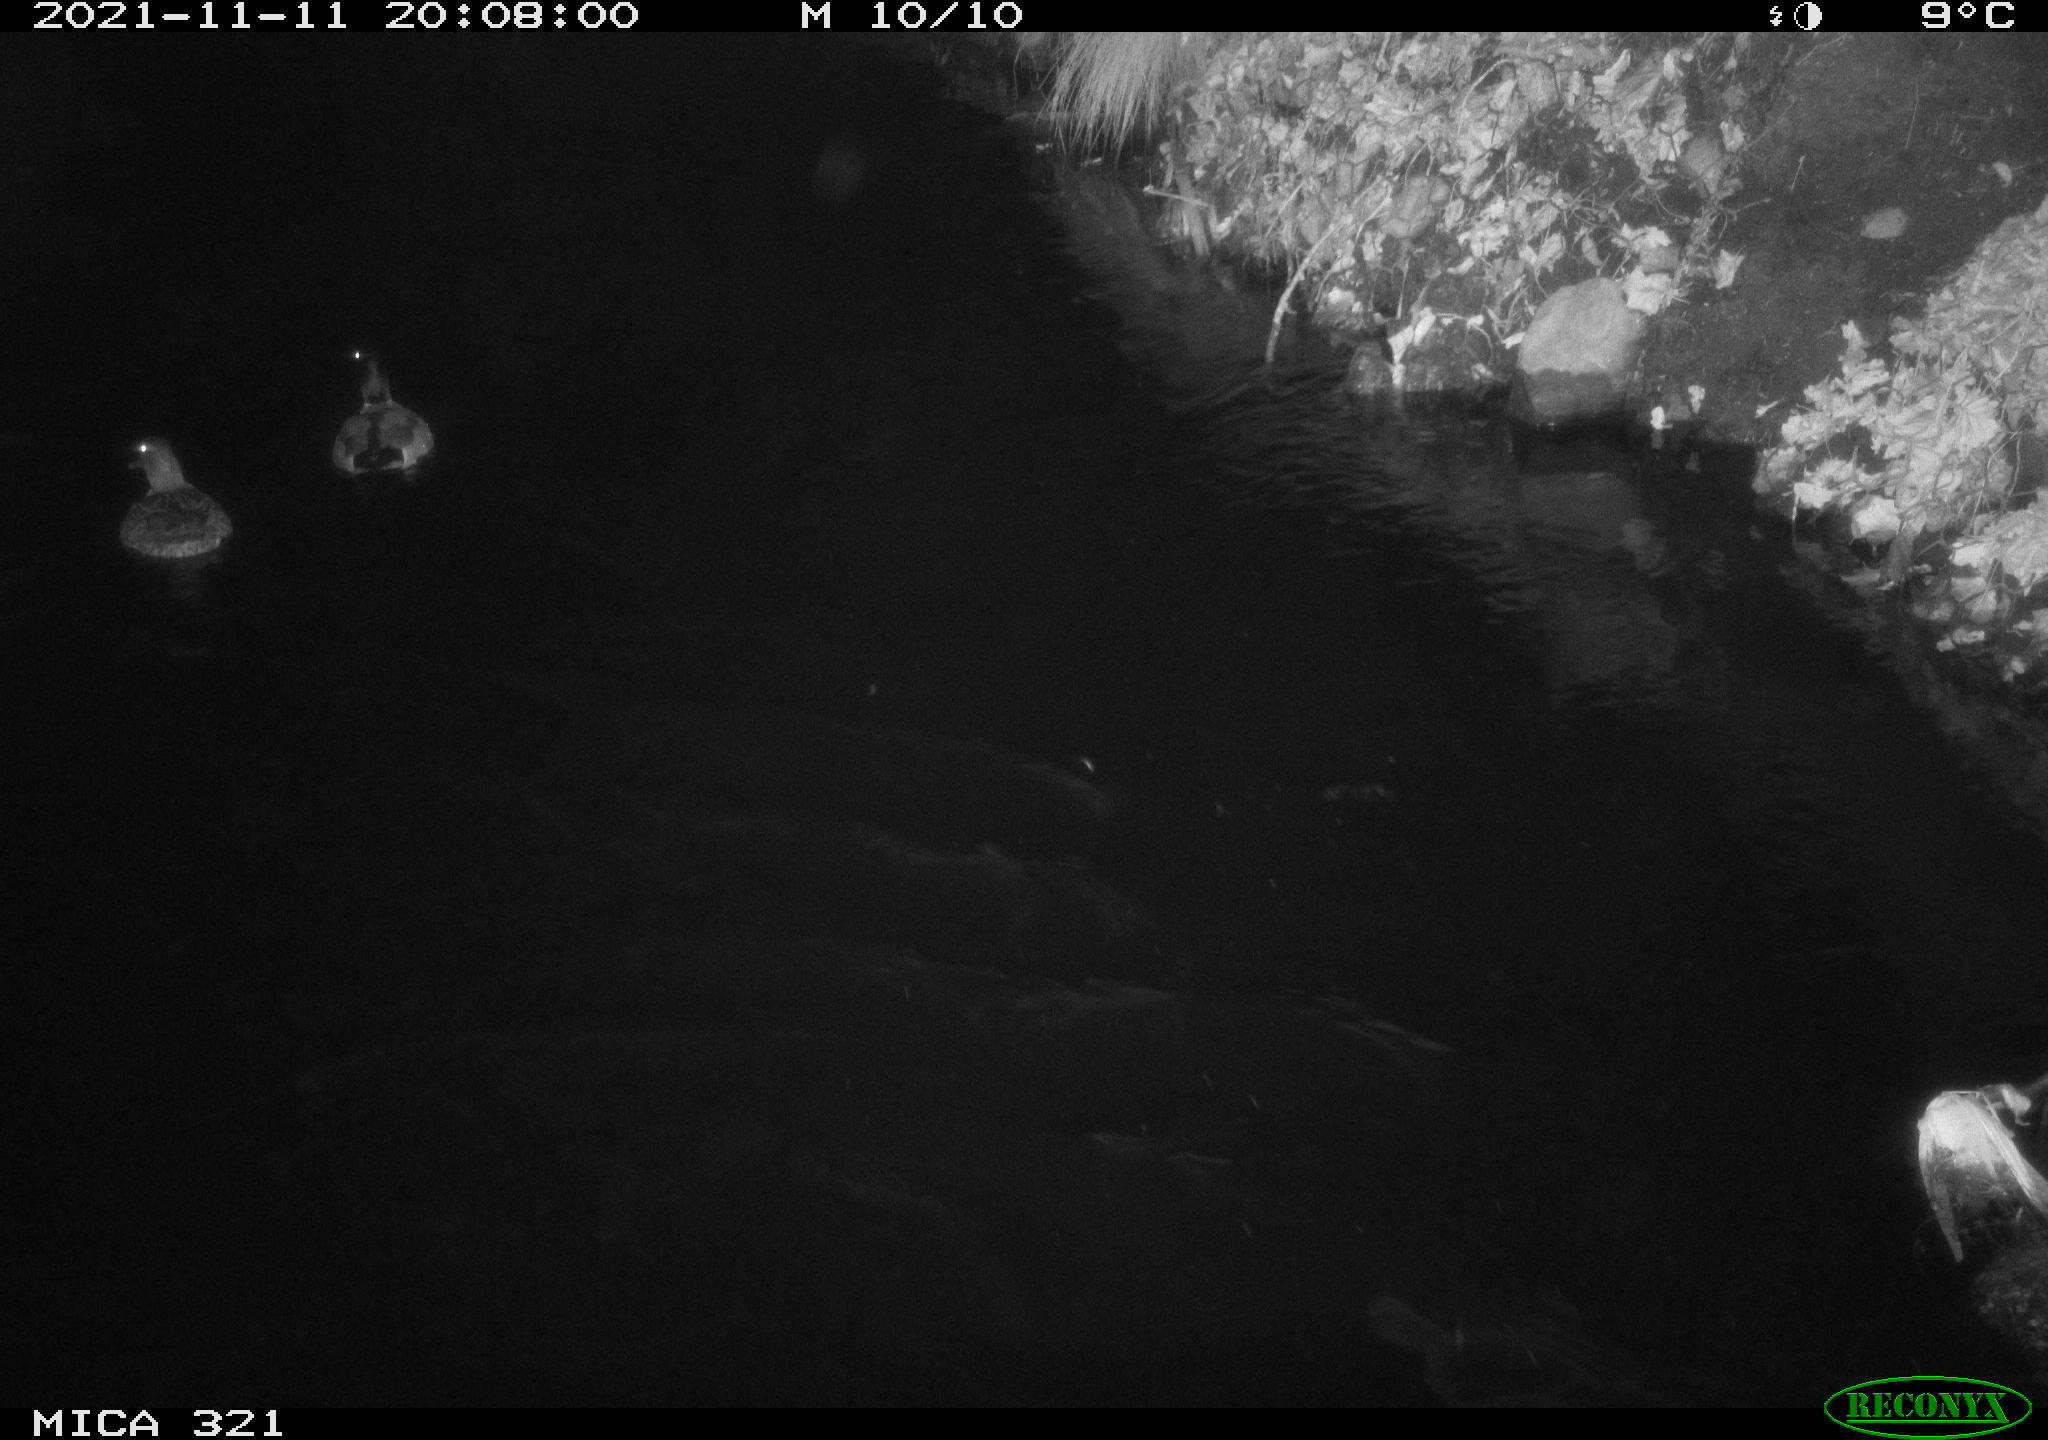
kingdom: Animalia
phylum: Chordata
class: Aves
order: Anseriformes
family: Anatidae
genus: Anas
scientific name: Anas platyrhynchos
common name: Mallard
